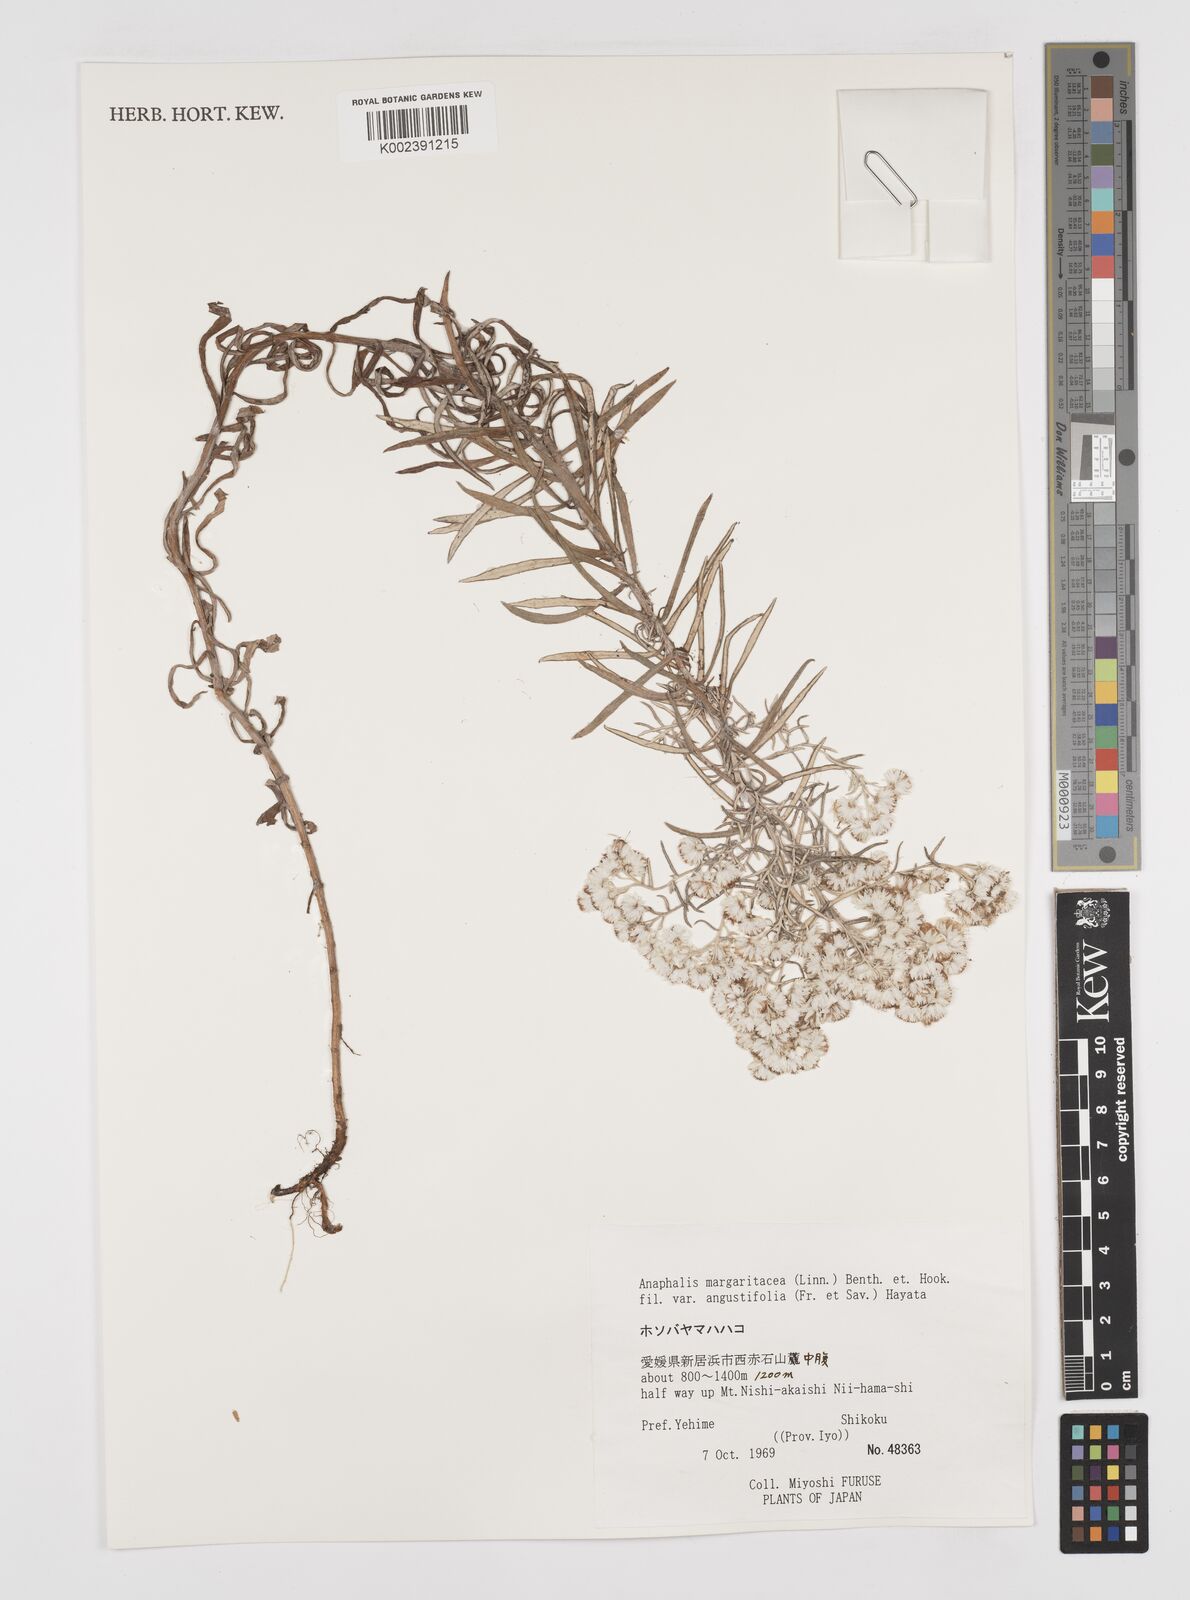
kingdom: Plantae
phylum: Tracheophyta
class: Magnoliopsida
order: Asterales
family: Asteraceae
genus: Anaphalis
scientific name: Anaphalis margaritacea
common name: Pearly everlasting
